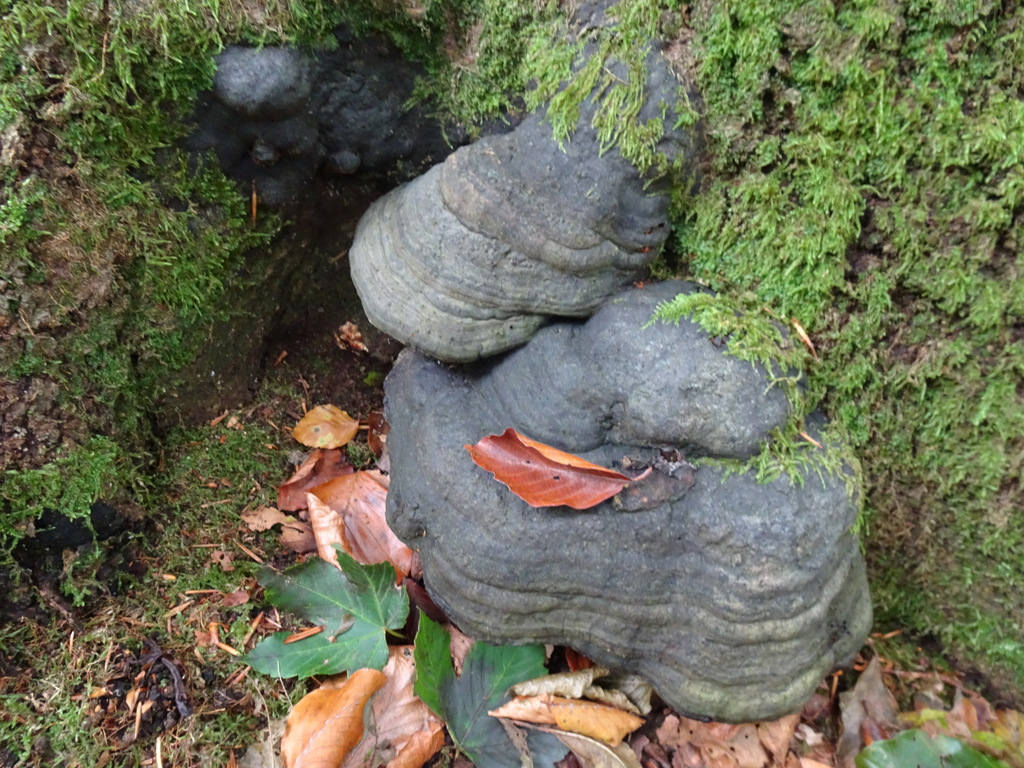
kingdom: Fungi
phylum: Basidiomycota
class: Agaricomycetes
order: Polyporales
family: Polyporaceae
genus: Fomes
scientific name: Fomes fomentarius
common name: tøndersvamp
